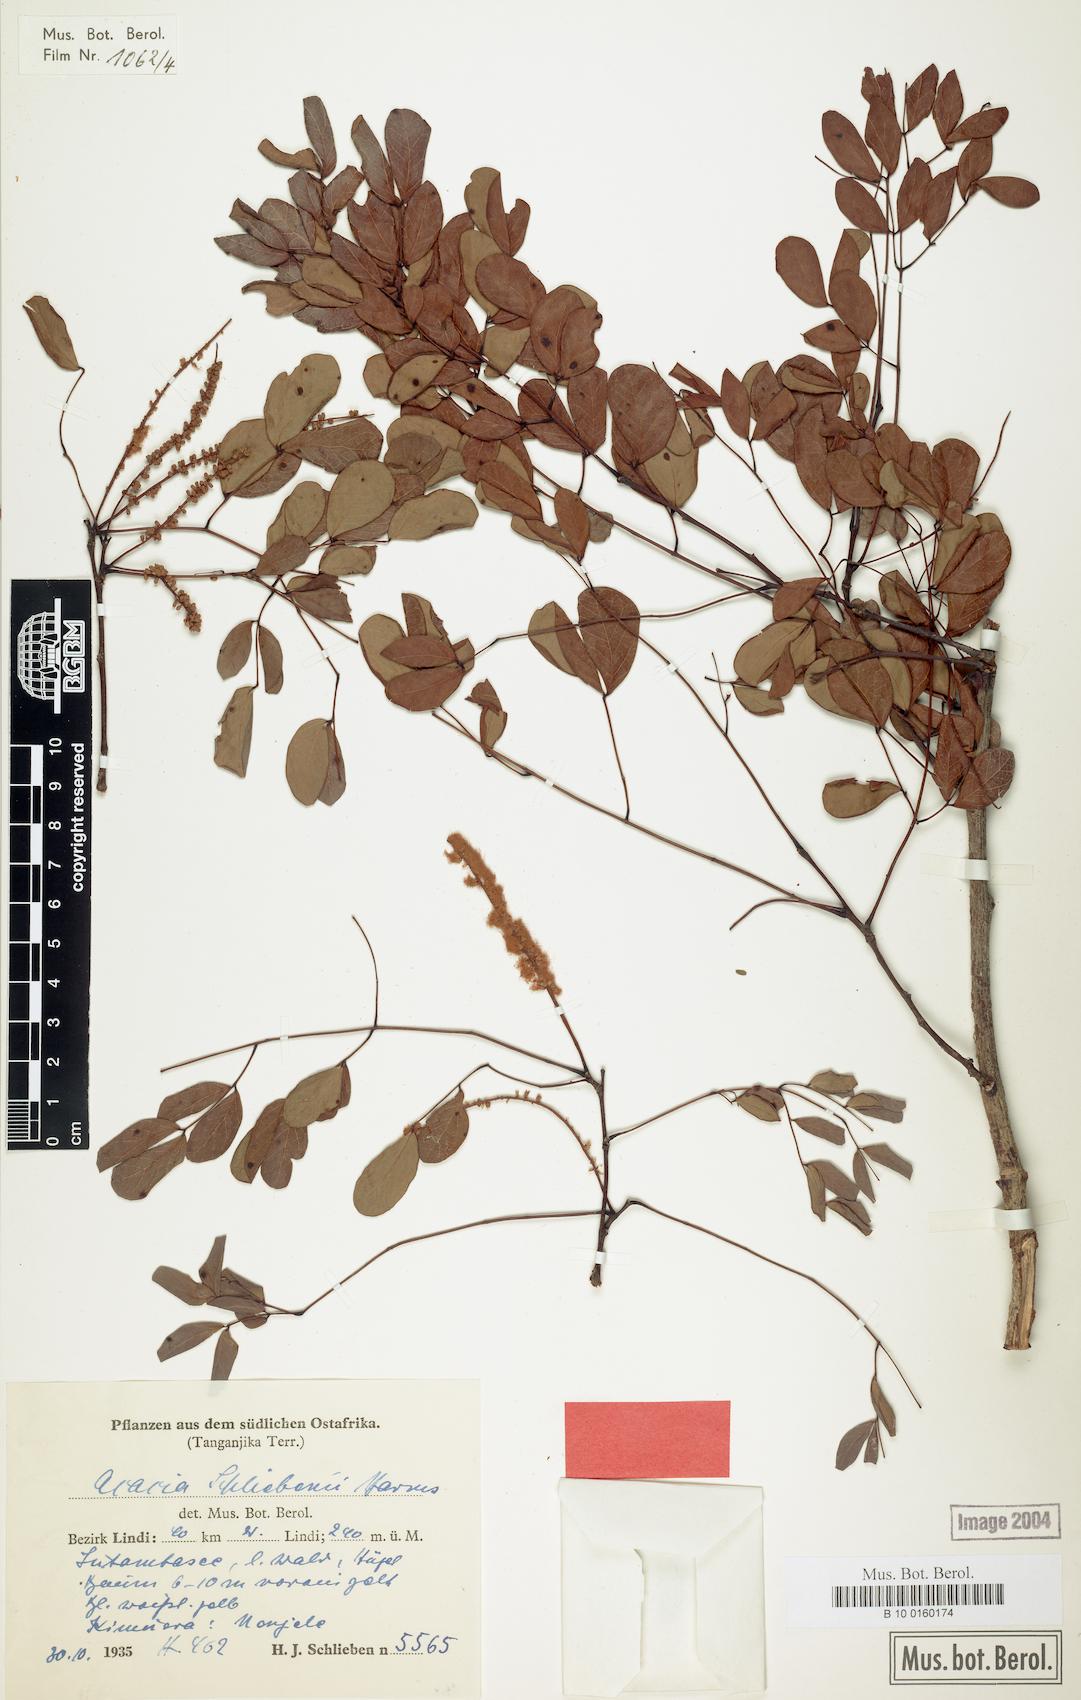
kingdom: Plantae
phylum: Tracheophyta
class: Magnoliopsida
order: Fabales
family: Fabaceae
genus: Senegalia
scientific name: Senegalia nigrescens
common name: Knobthorn
